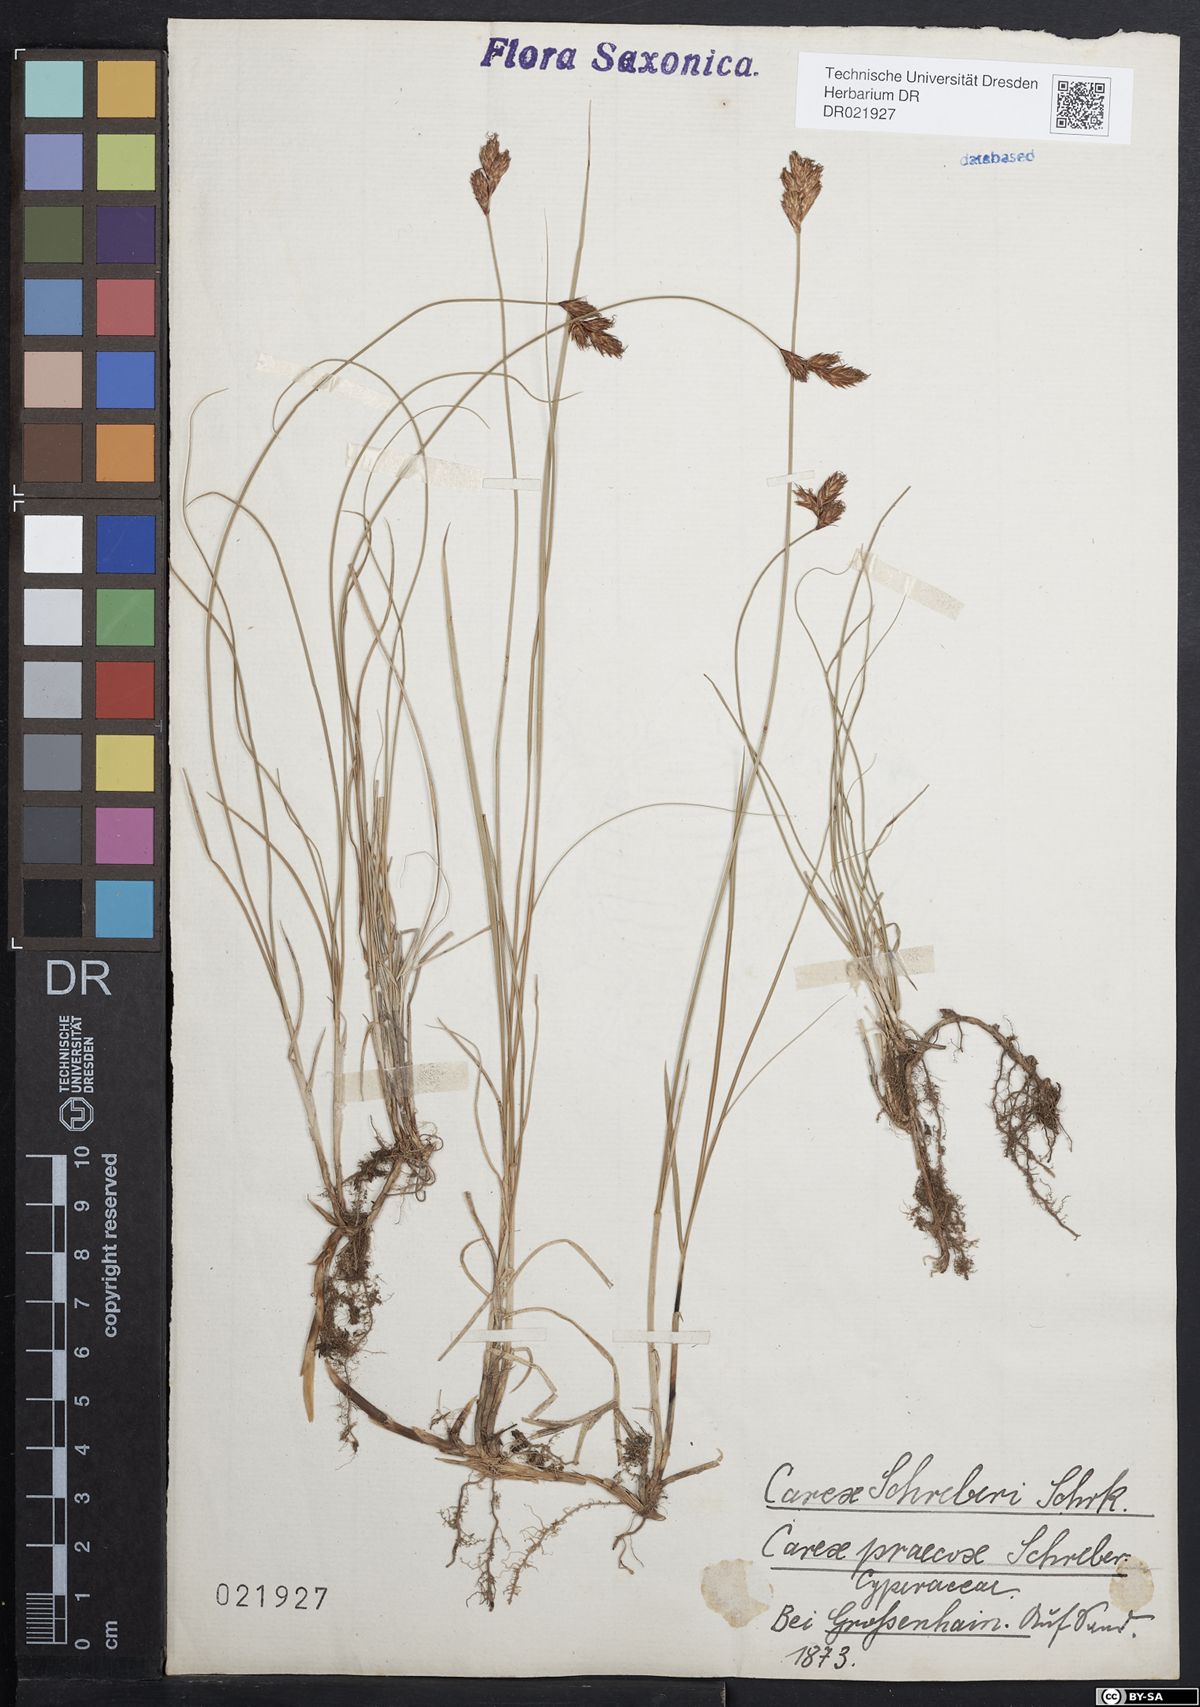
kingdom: Plantae
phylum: Tracheophyta
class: Liliopsida
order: Poales
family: Cyperaceae
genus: Carex
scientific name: Carex praecox
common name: Early sedge
